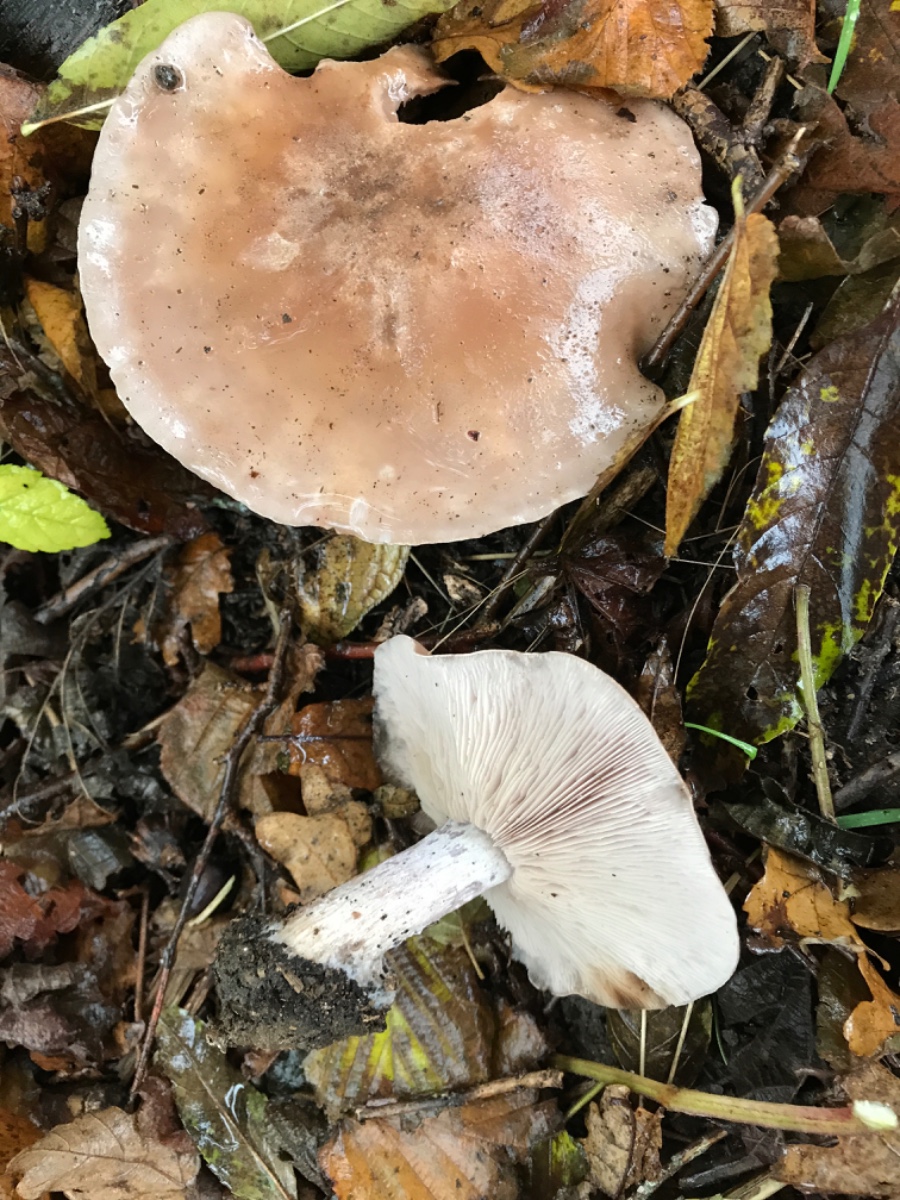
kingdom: Fungi
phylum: Basidiomycota
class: Agaricomycetes
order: Agaricales
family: Tricholomataceae
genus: Lepista
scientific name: Lepista personata
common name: bleg hekseringshat
